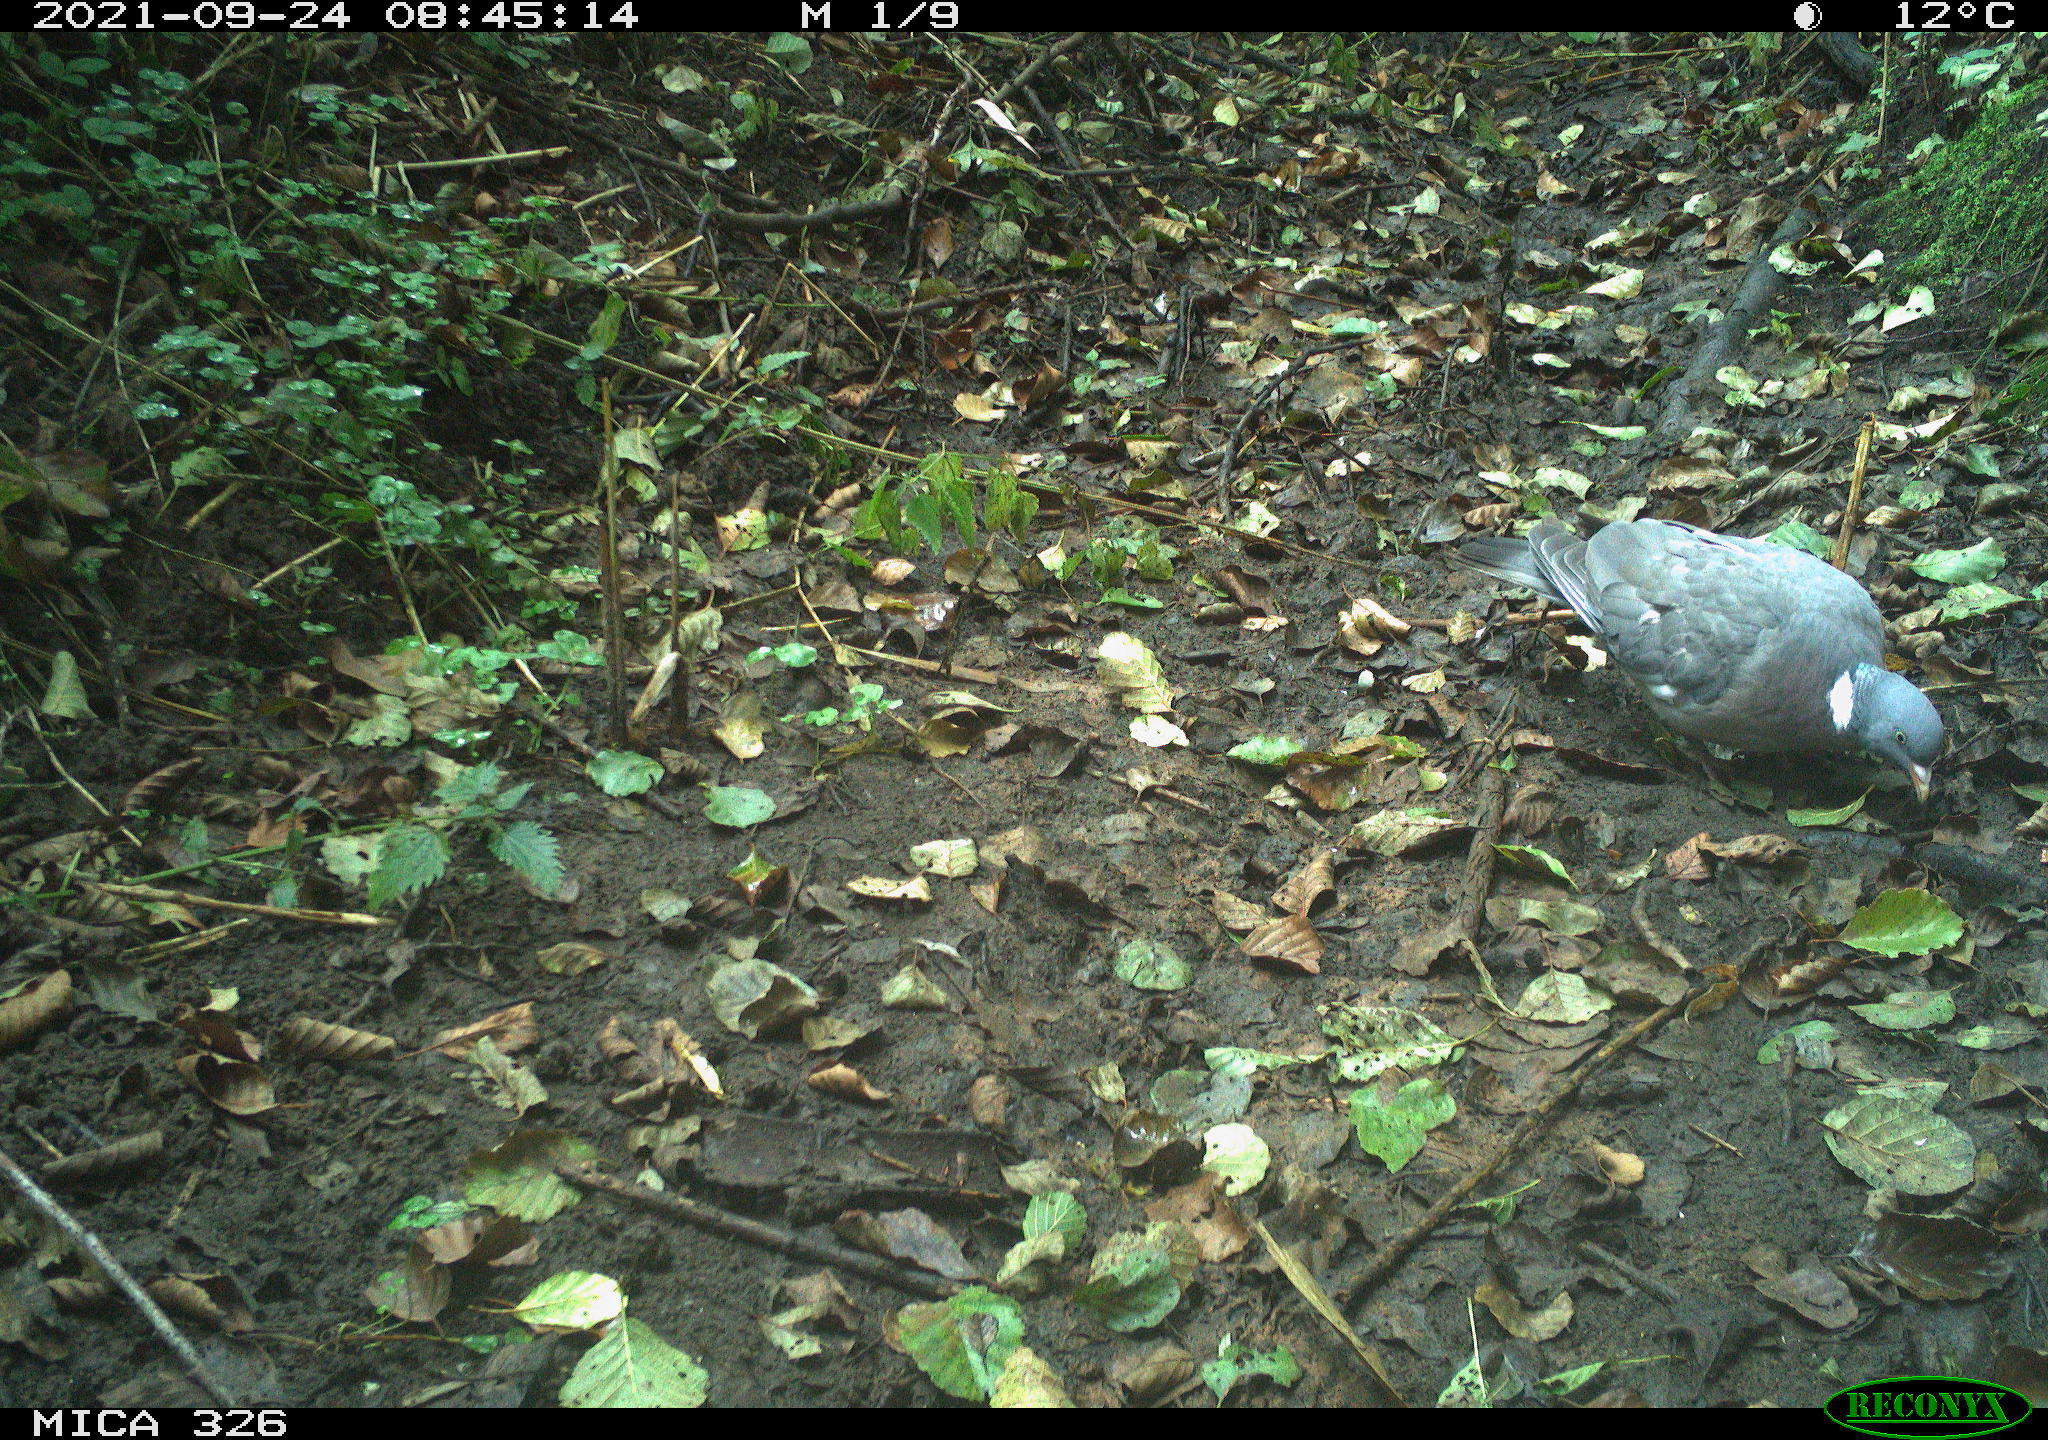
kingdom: Animalia
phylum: Chordata
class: Aves
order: Columbiformes
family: Columbidae
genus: Columba
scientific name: Columba palumbus
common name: Common wood pigeon
